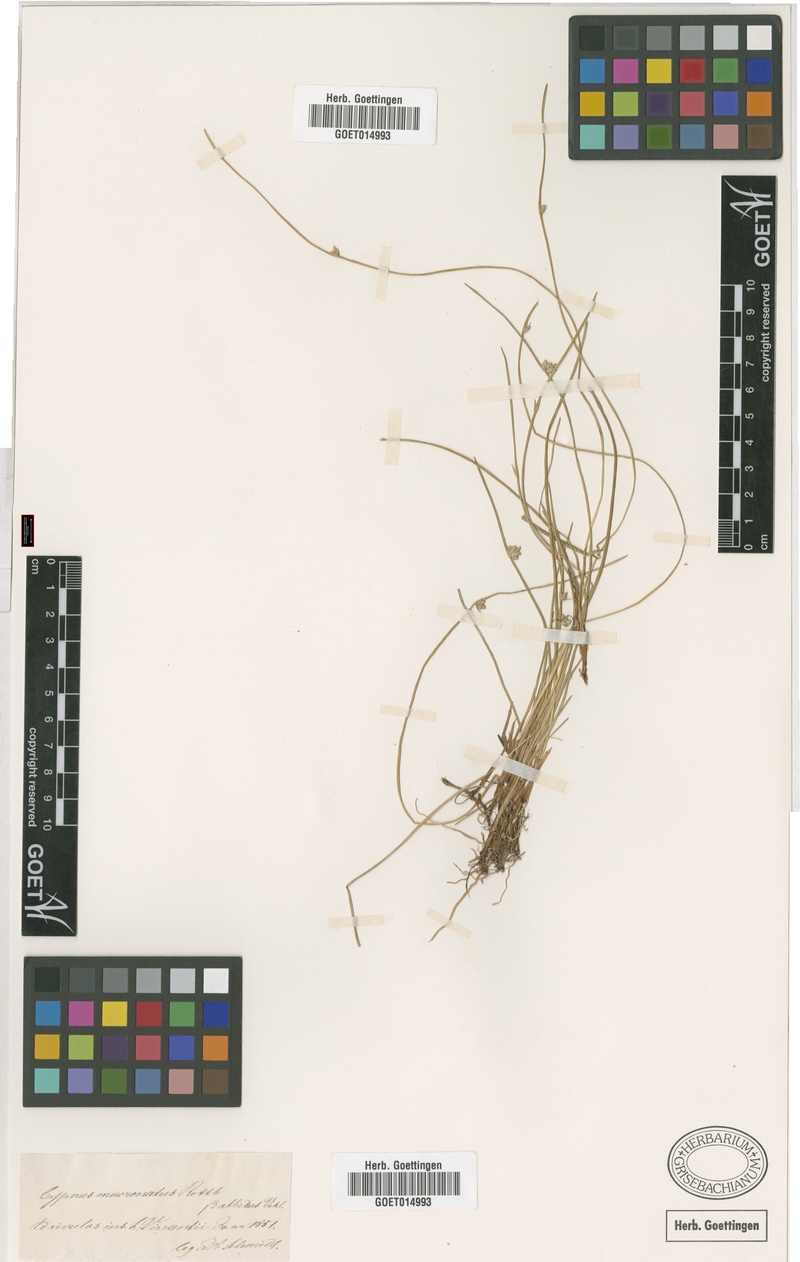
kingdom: Plantae
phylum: Tracheophyta
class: Liliopsida
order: Poales
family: Cyperaceae
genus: Cyperus
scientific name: Cyperus mucronatus
